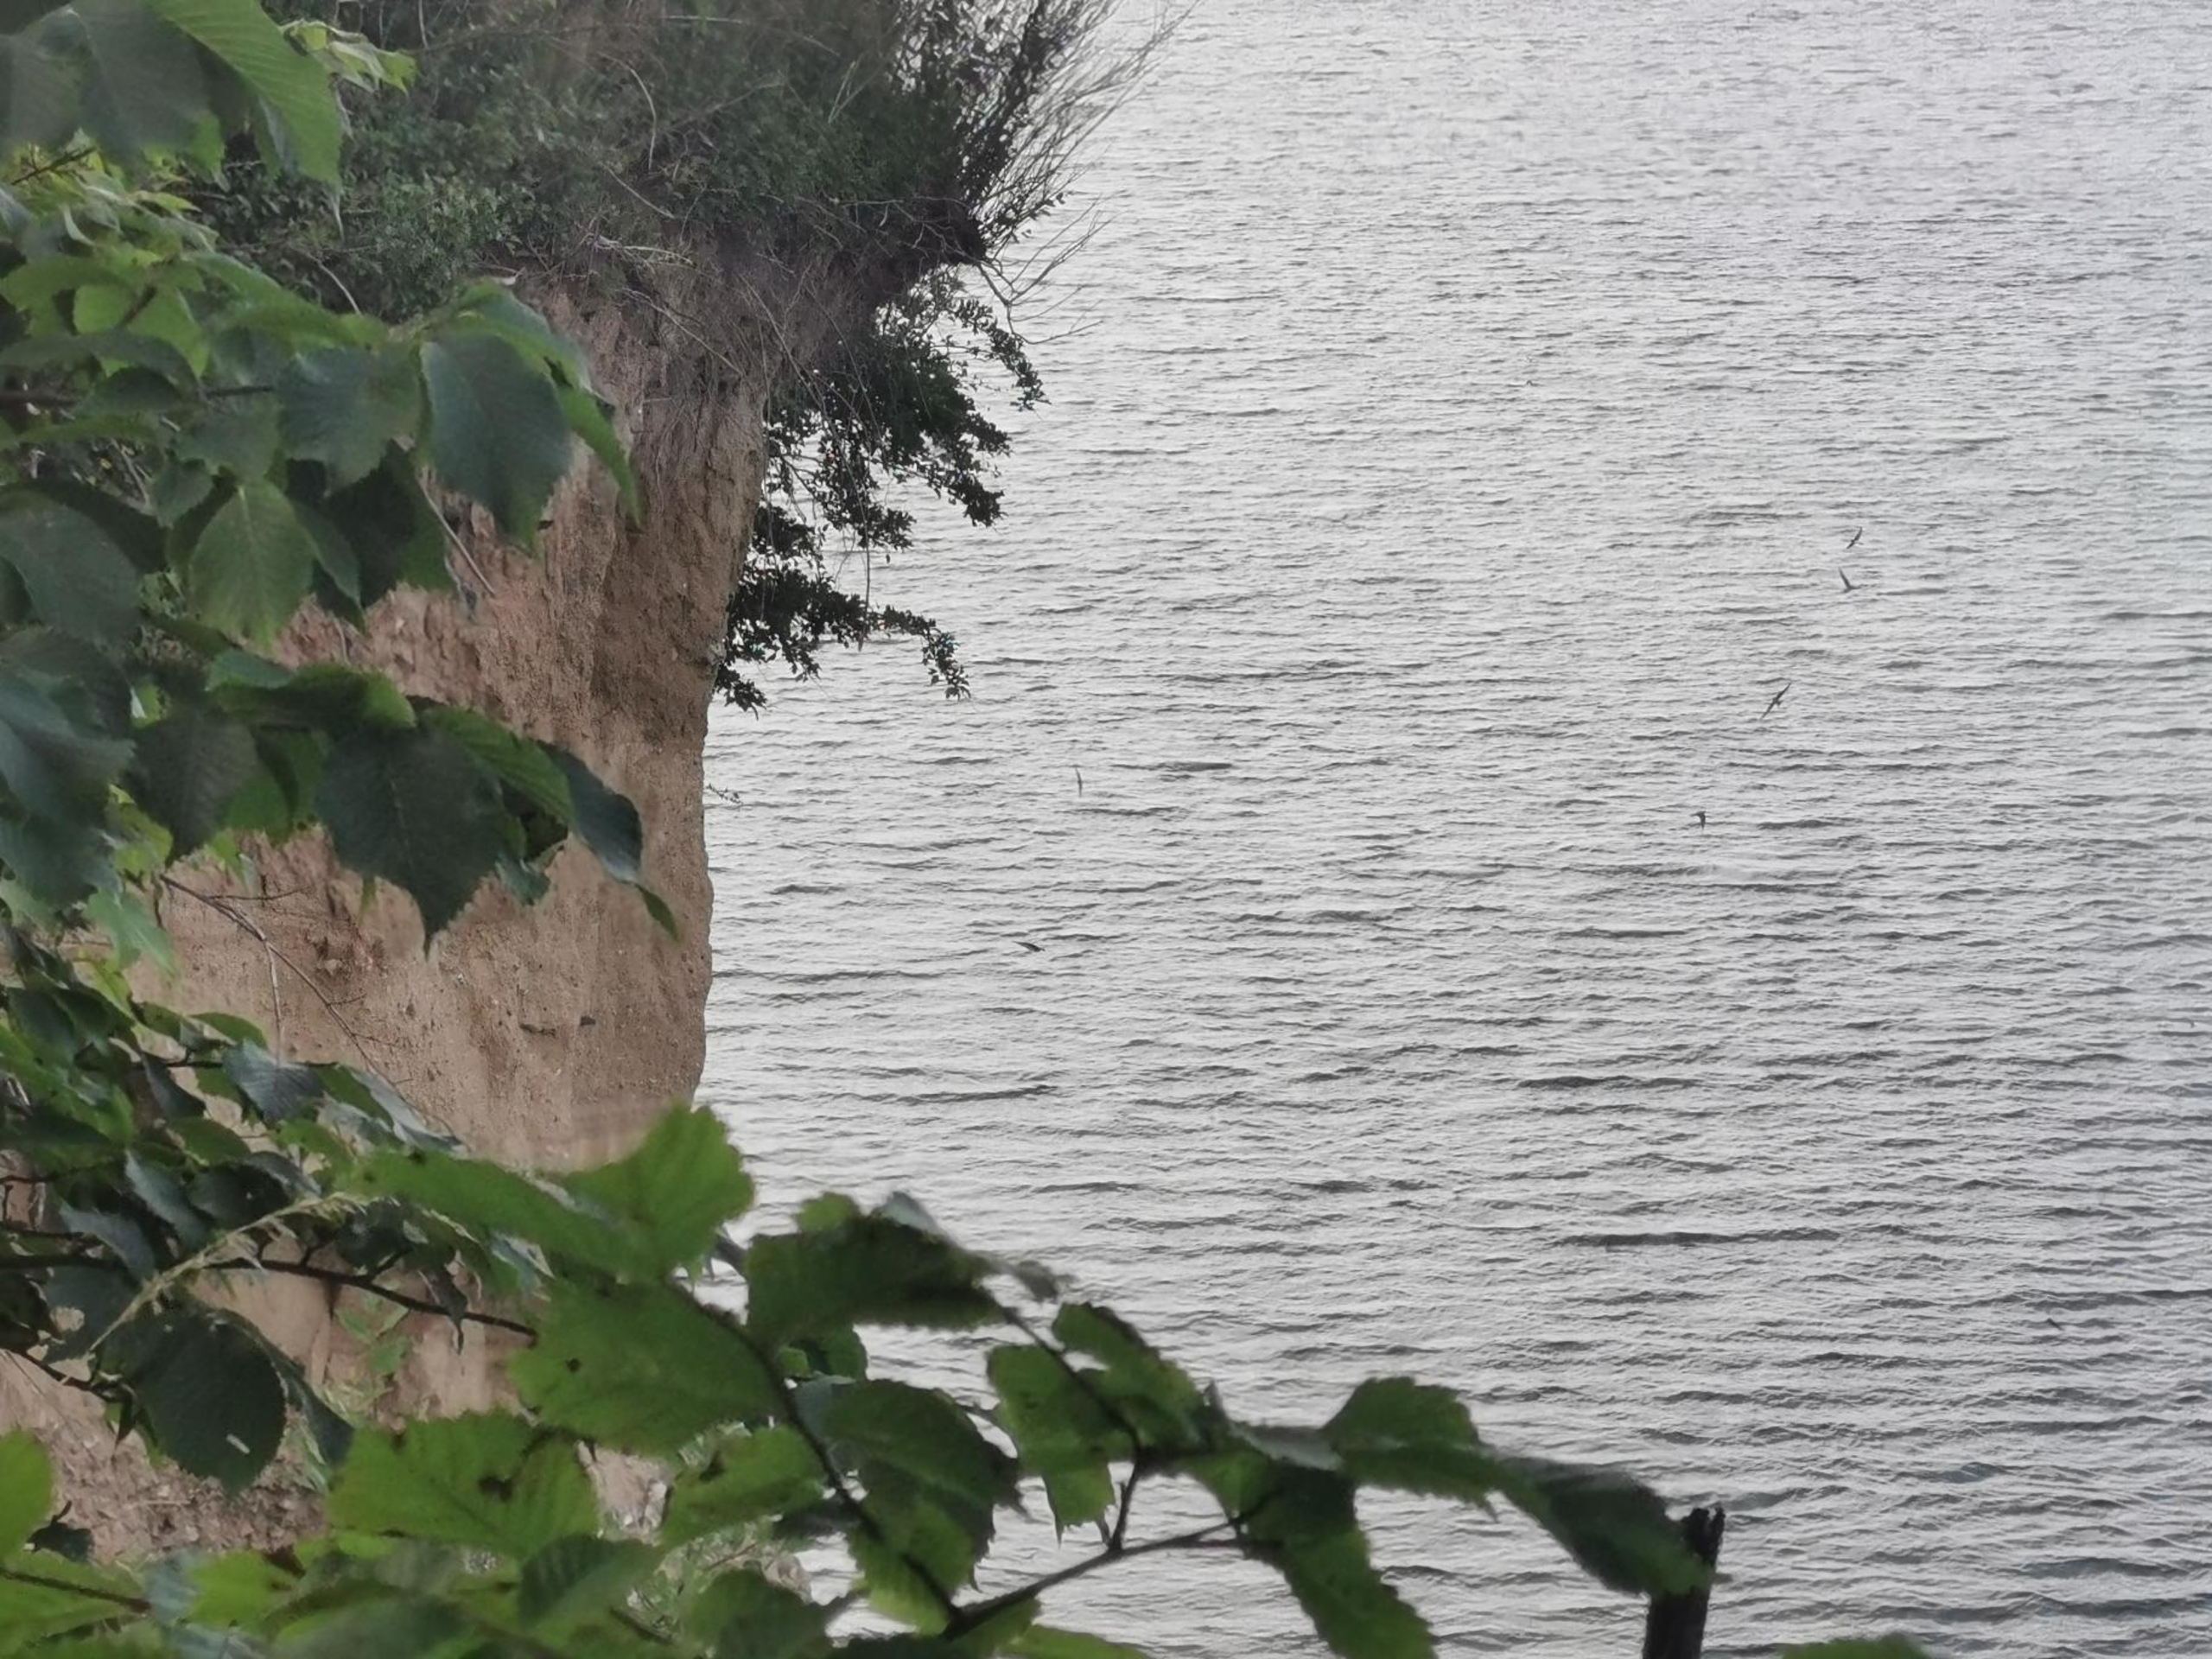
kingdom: Animalia
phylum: Chordata
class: Aves
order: Passeriformes
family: Hirundinidae
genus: Riparia
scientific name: Riparia riparia
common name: Digesvale
